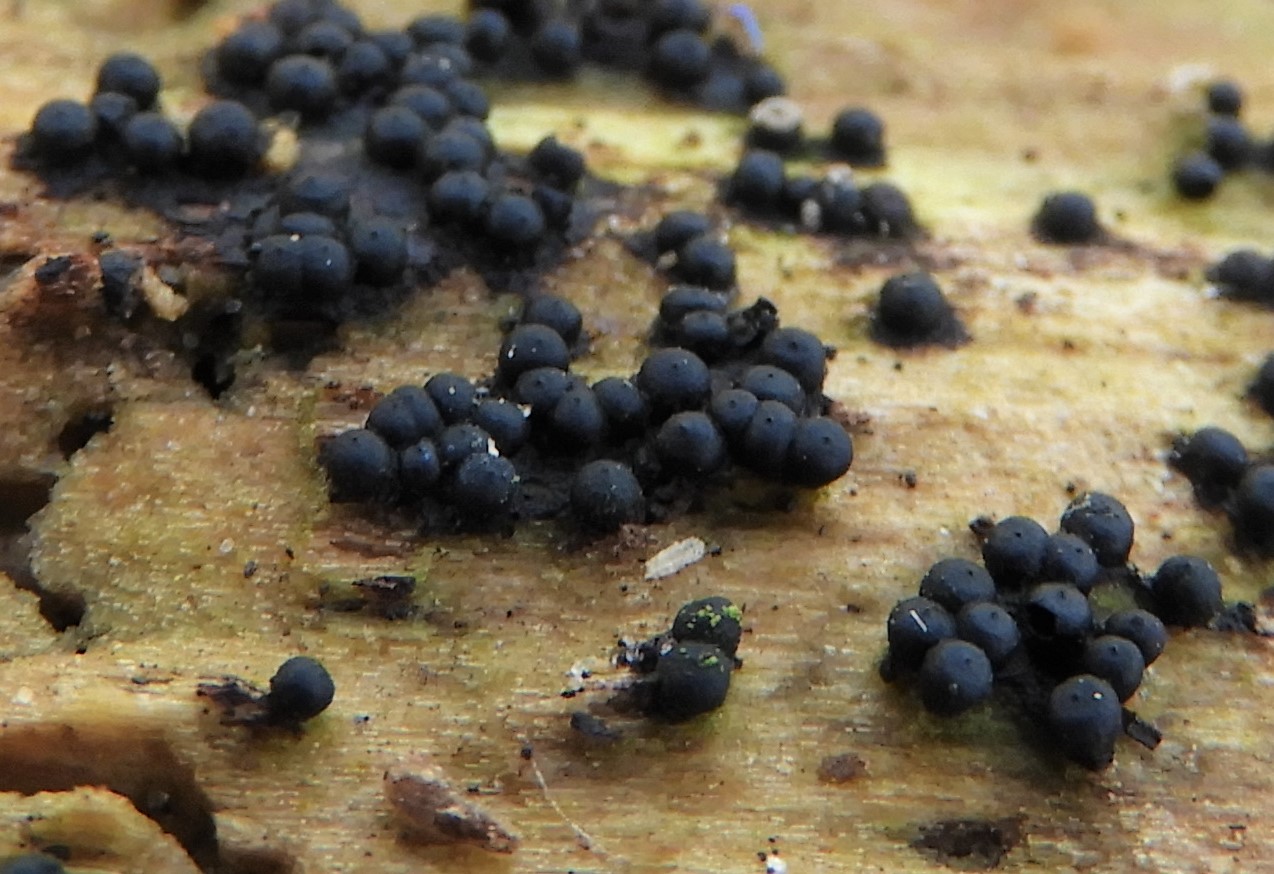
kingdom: Fungi
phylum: Ascomycota
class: Sordariomycetes
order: Xylariales
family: Xylariaceae
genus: Rosellinia
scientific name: Rosellinia
